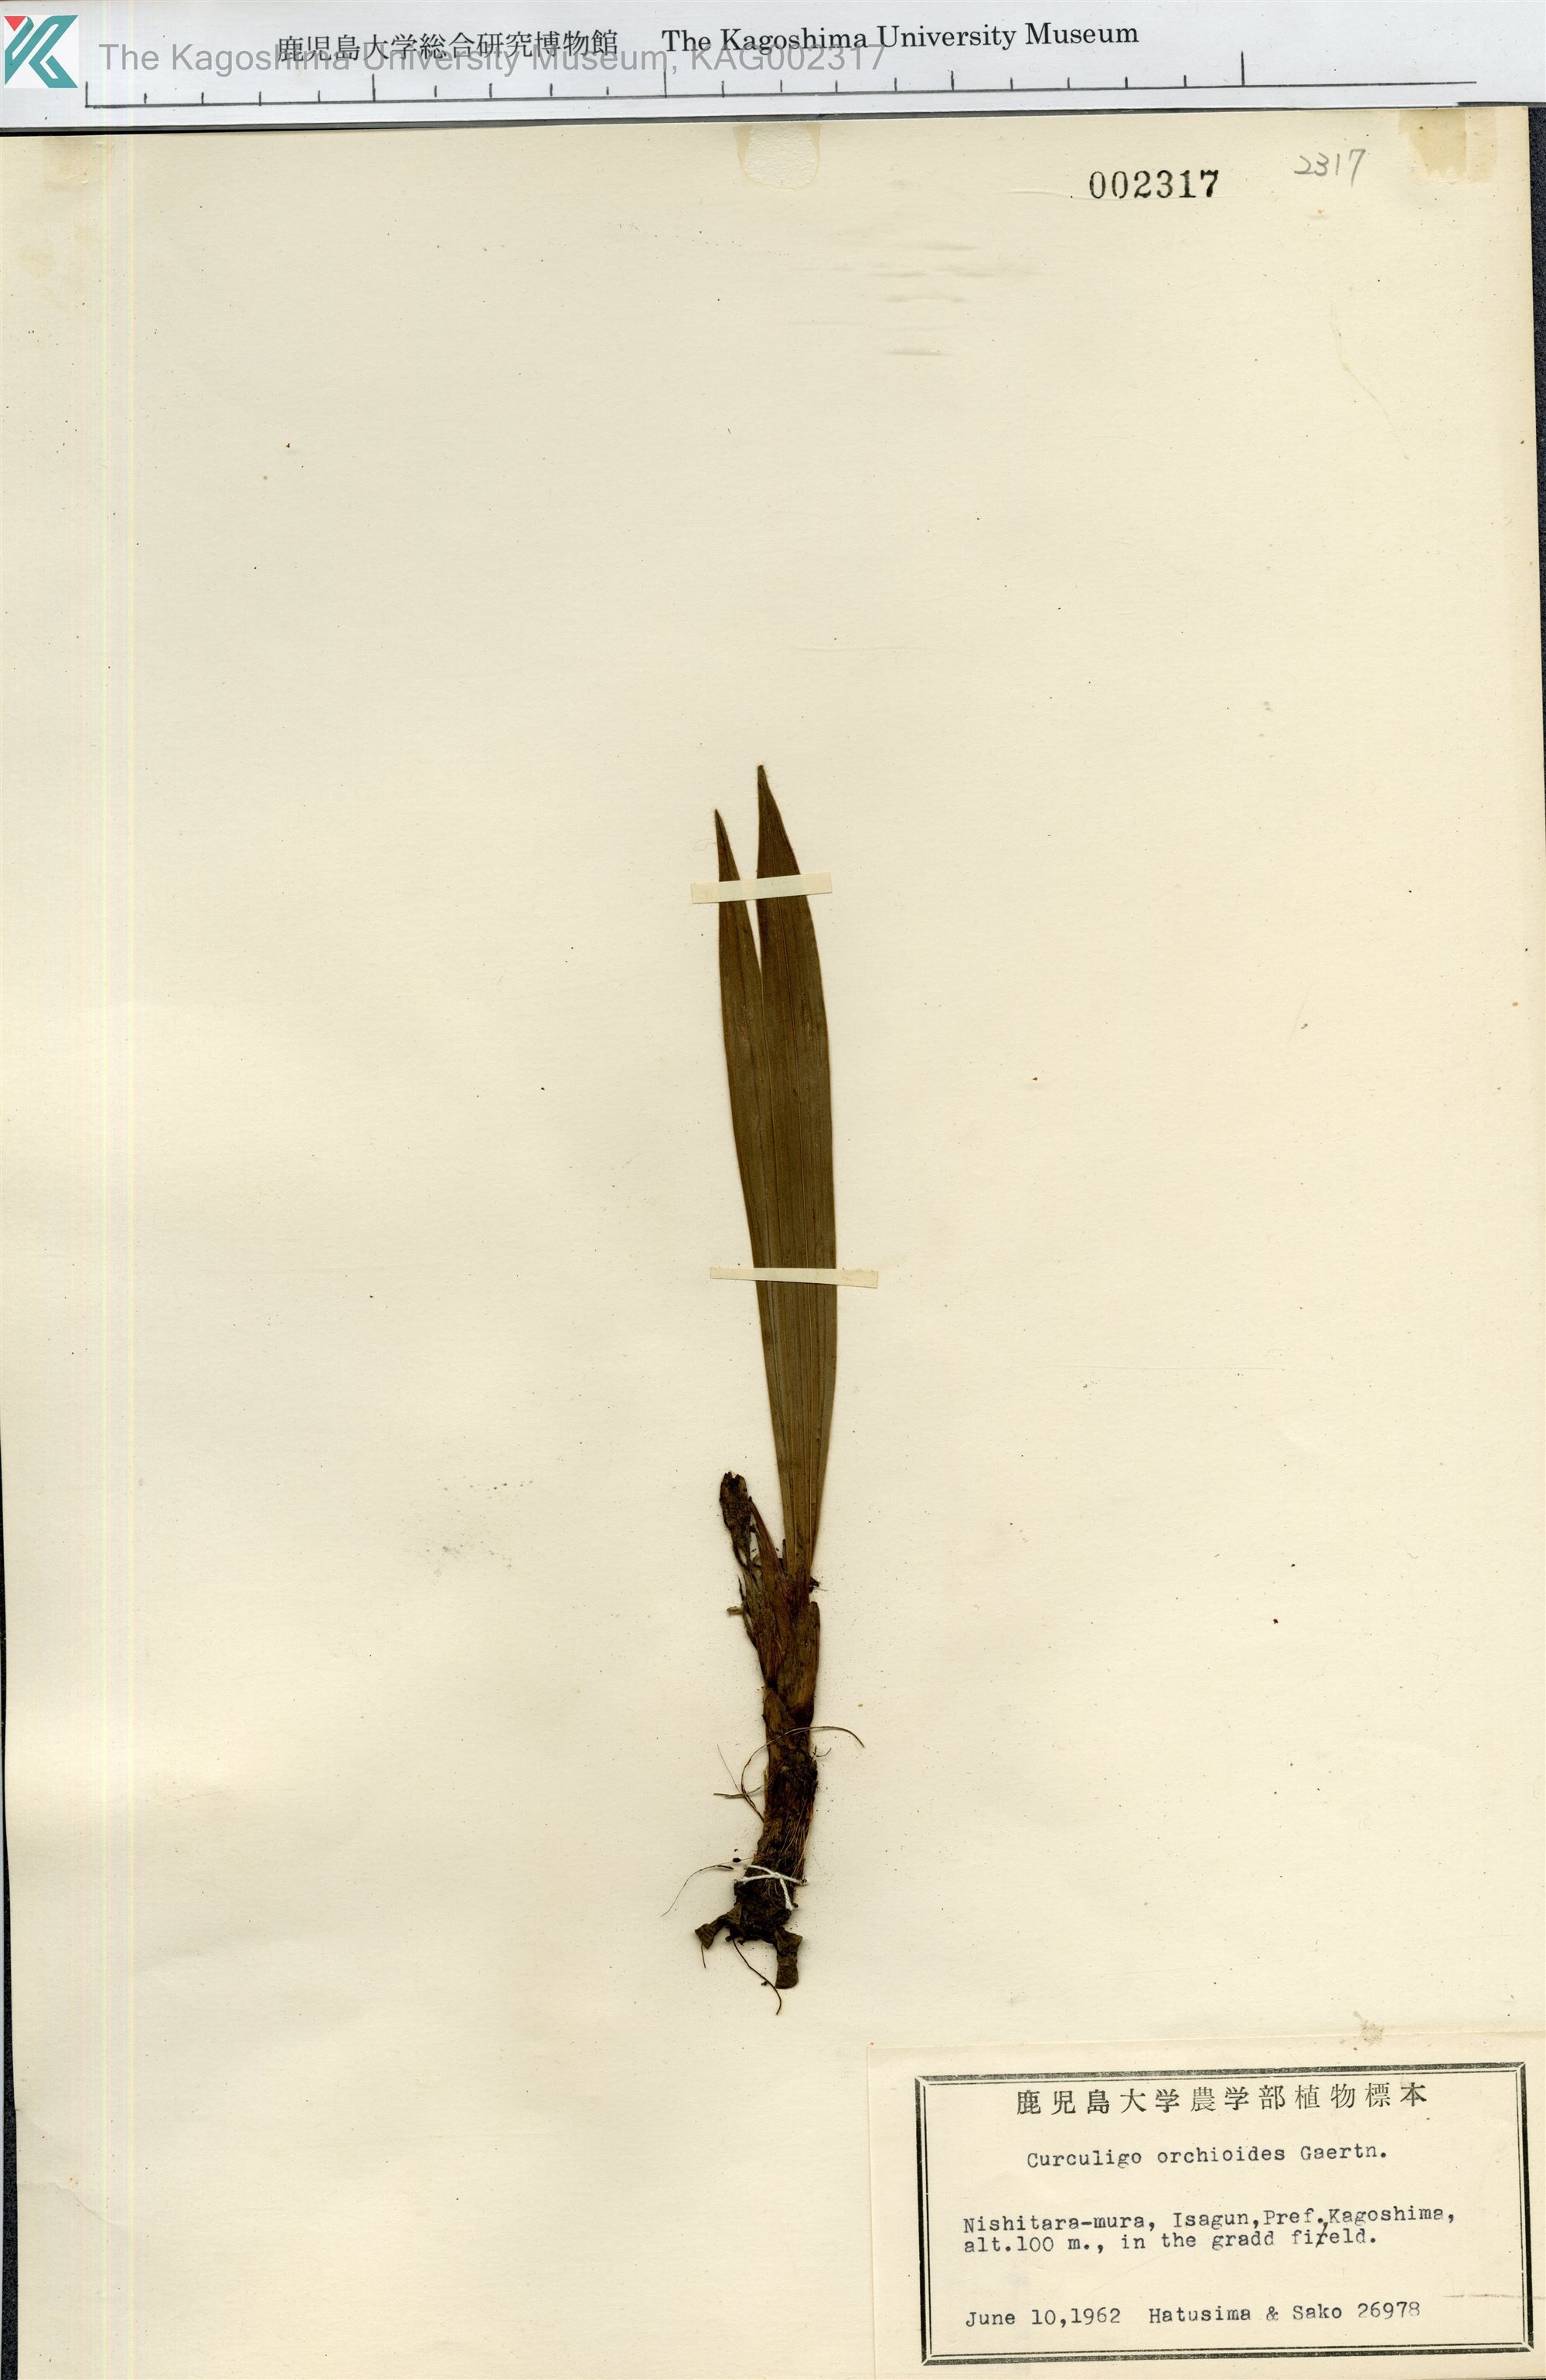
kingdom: Plantae
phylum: Tracheophyta
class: Liliopsida
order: Asparagales
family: Hypoxidaceae
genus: Curculigo
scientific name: Curculigo orchioides
